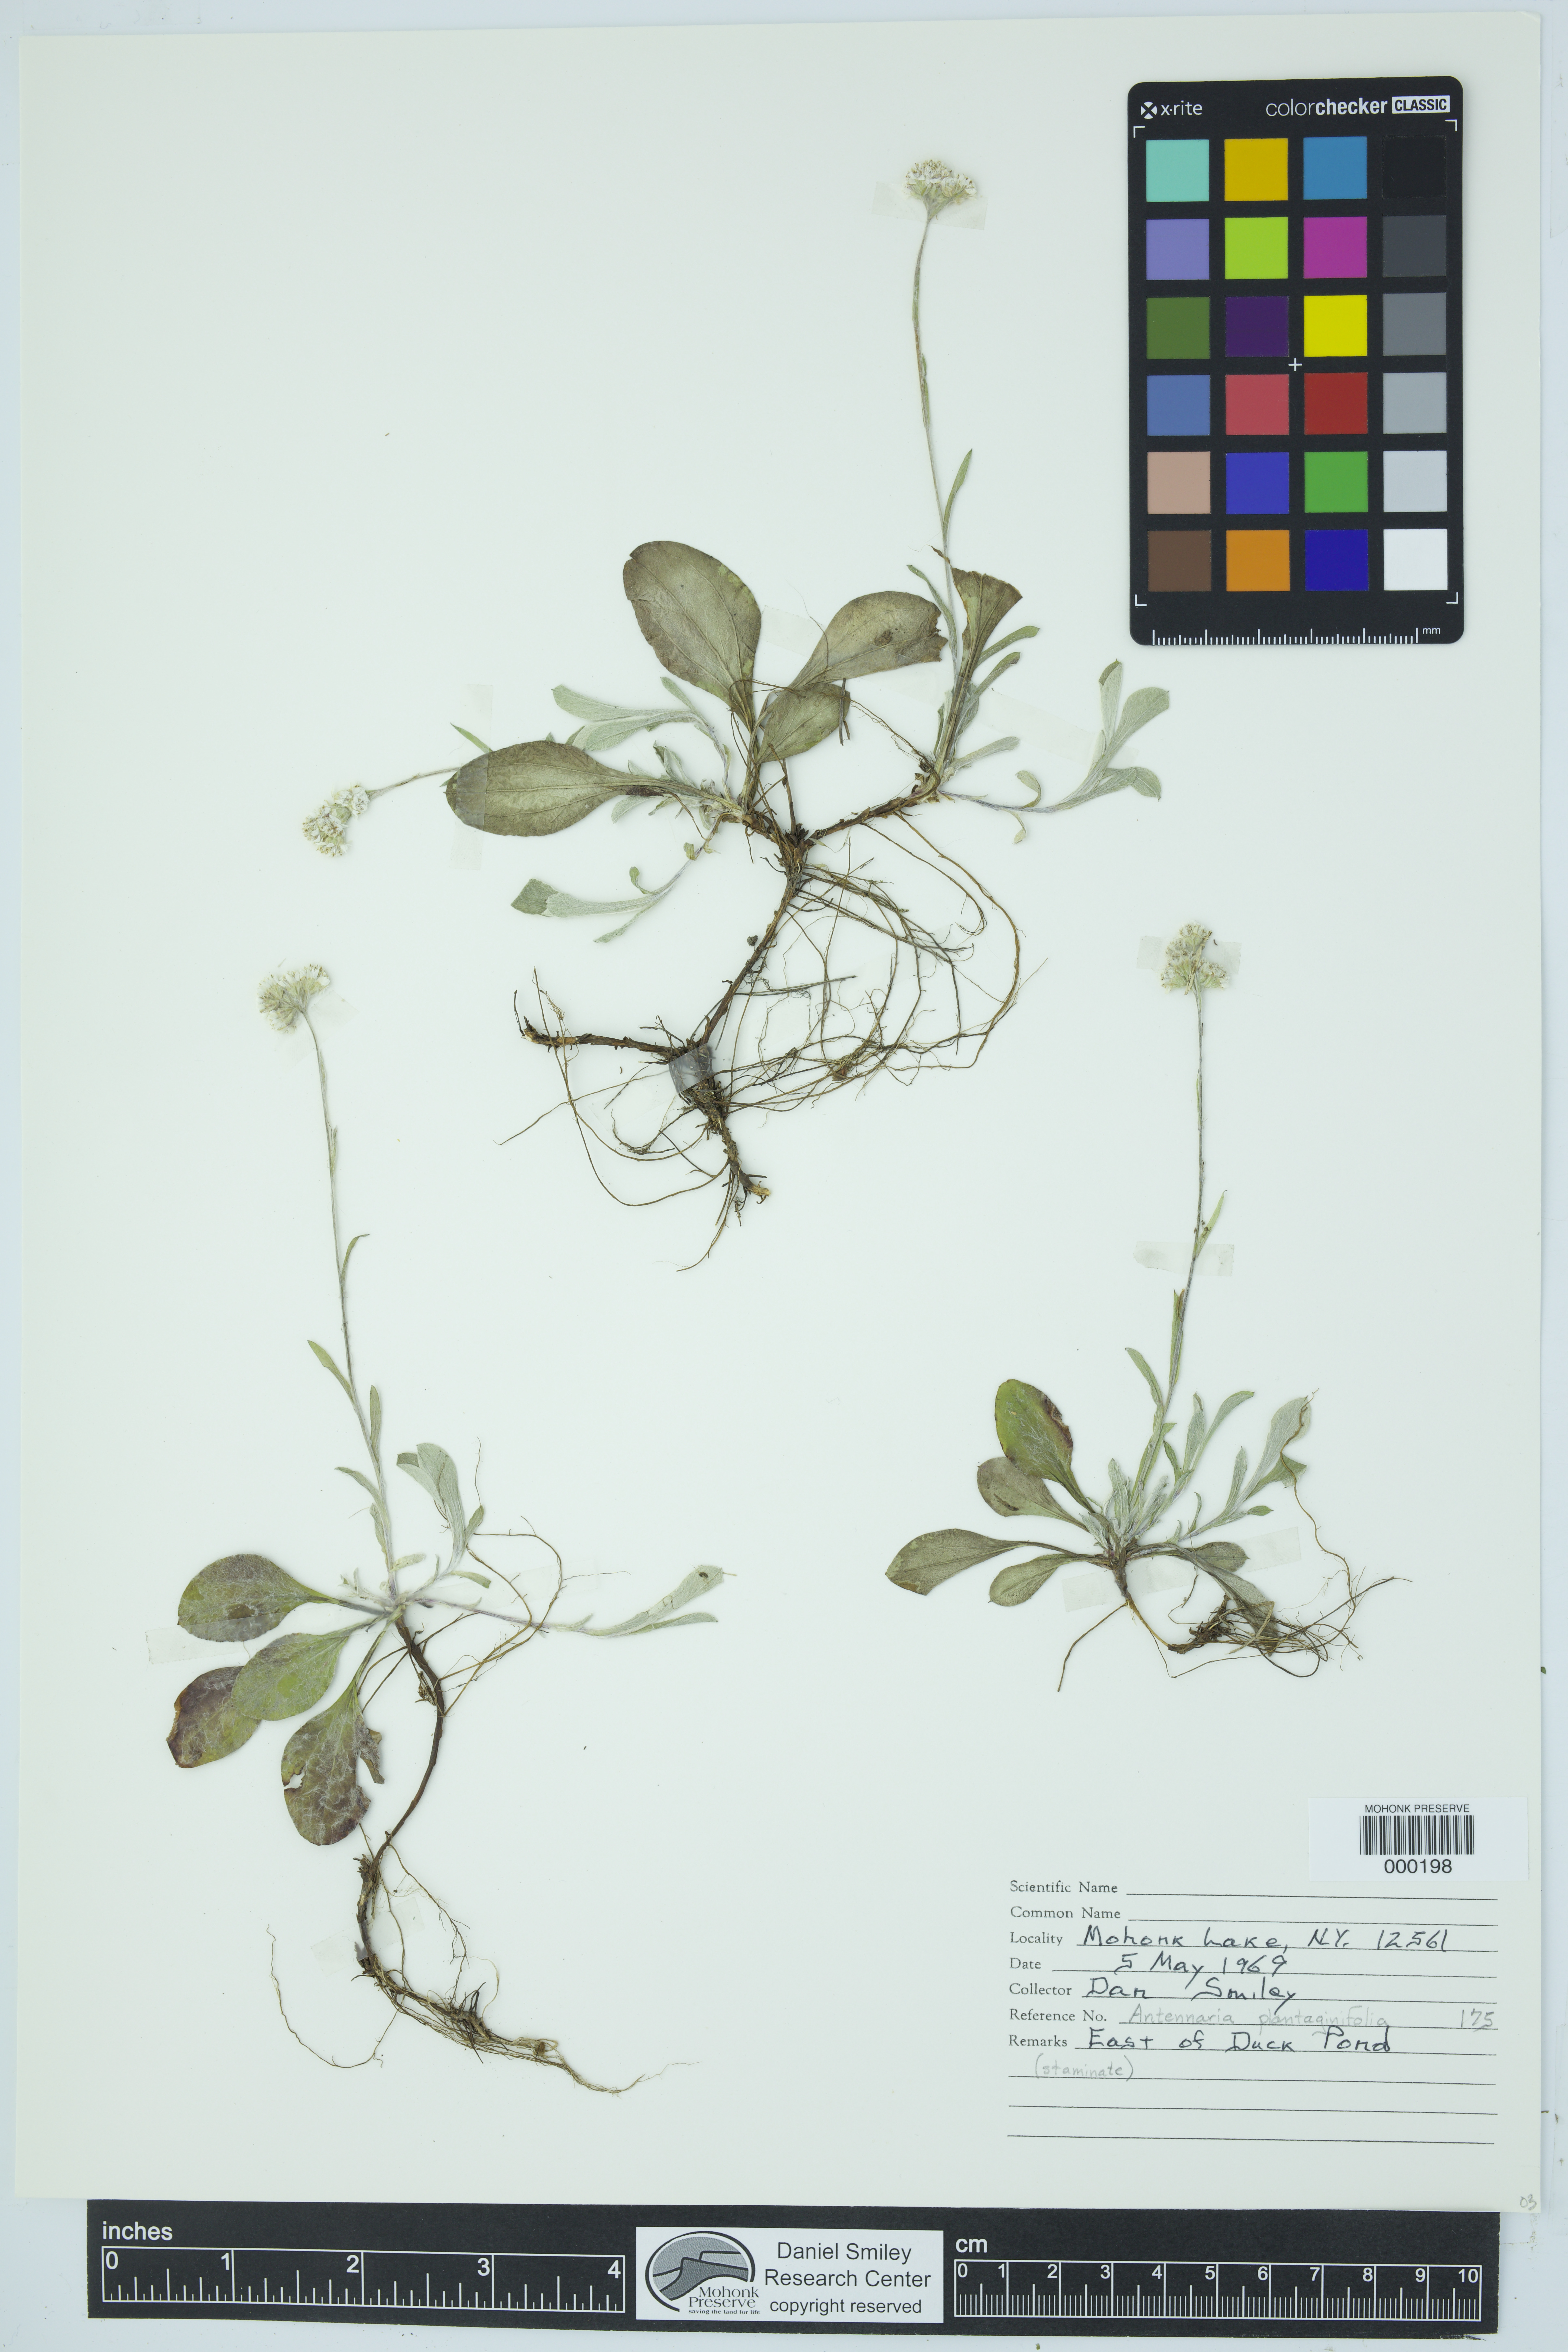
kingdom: Plantae
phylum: Tracheophyta
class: Magnoliopsida
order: Asterales
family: Asteraceae
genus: Antennaria
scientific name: Antennaria plantaginifolia
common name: Plantain-leaved pussytoes
